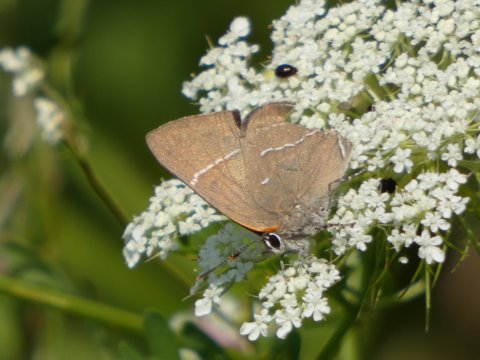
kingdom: Animalia
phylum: Arthropoda
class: Insecta
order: Lepidoptera
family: Lycaenidae
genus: Parrhasius
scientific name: Parrhasius m-album
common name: White-m Hairstreak
